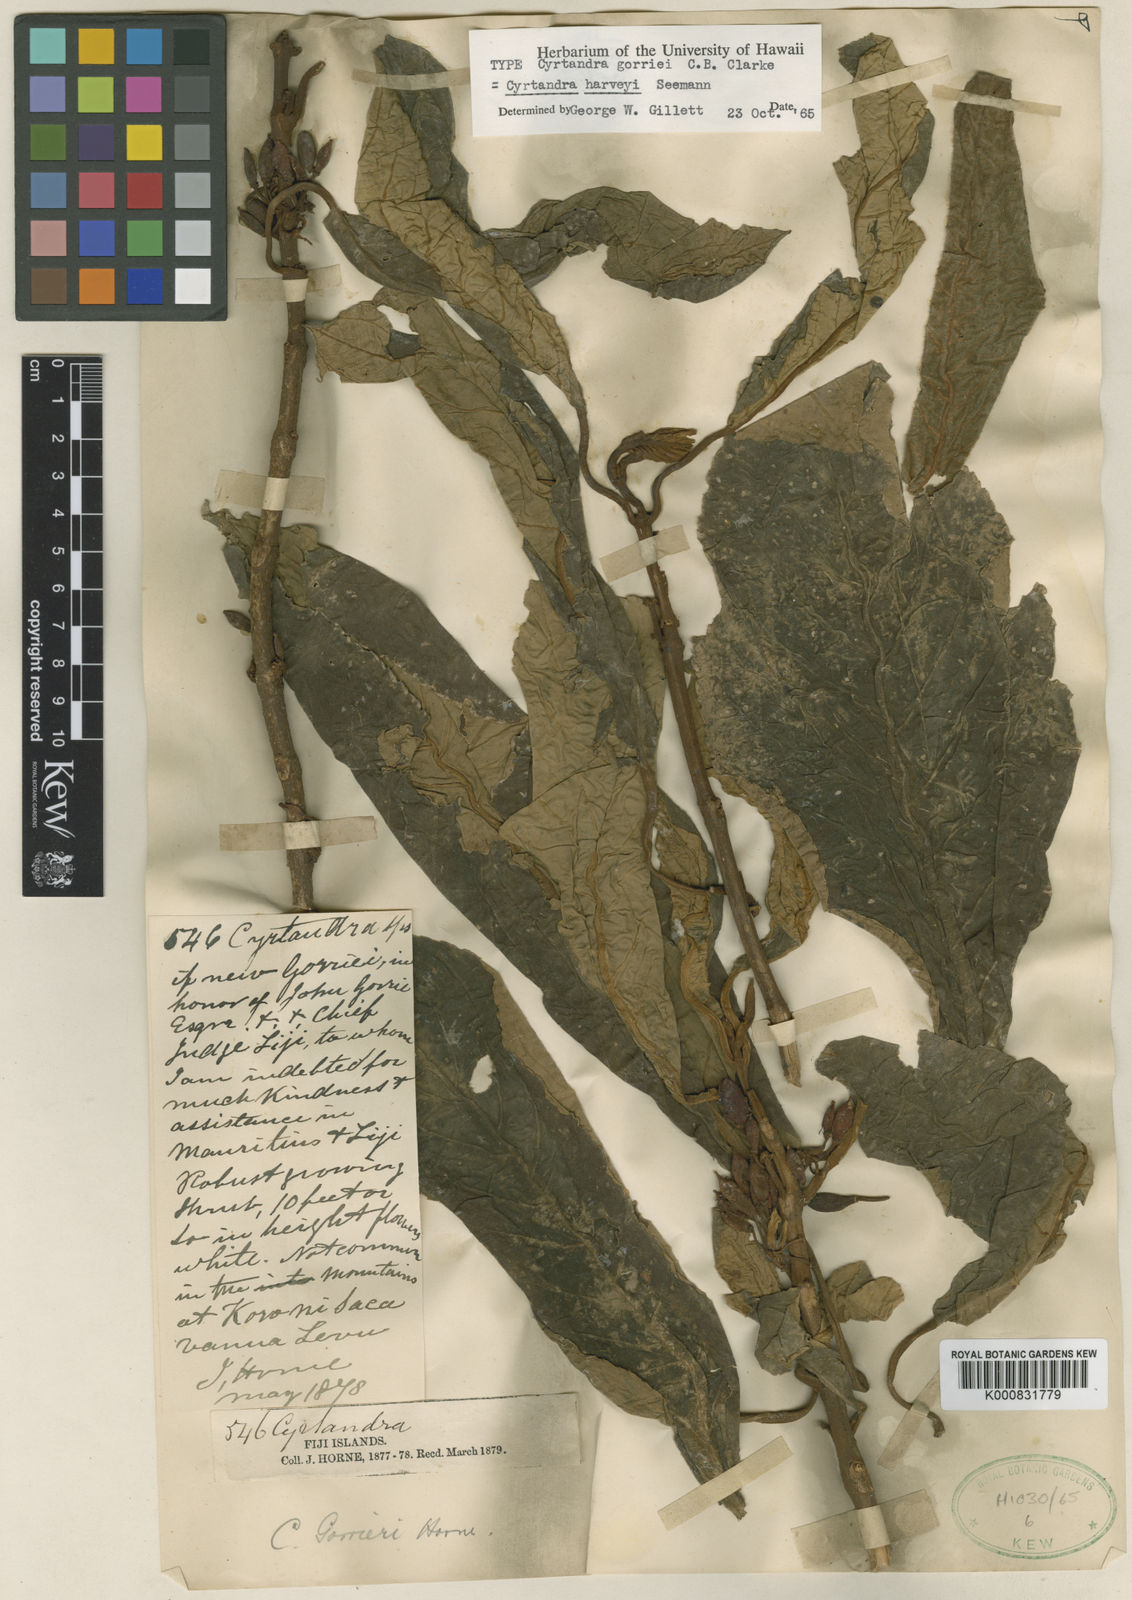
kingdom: Plantae
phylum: Tracheophyta
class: Magnoliopsida
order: Lamiales
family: Gesneriaceae
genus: Cyrtandra
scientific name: Cyrtandra
